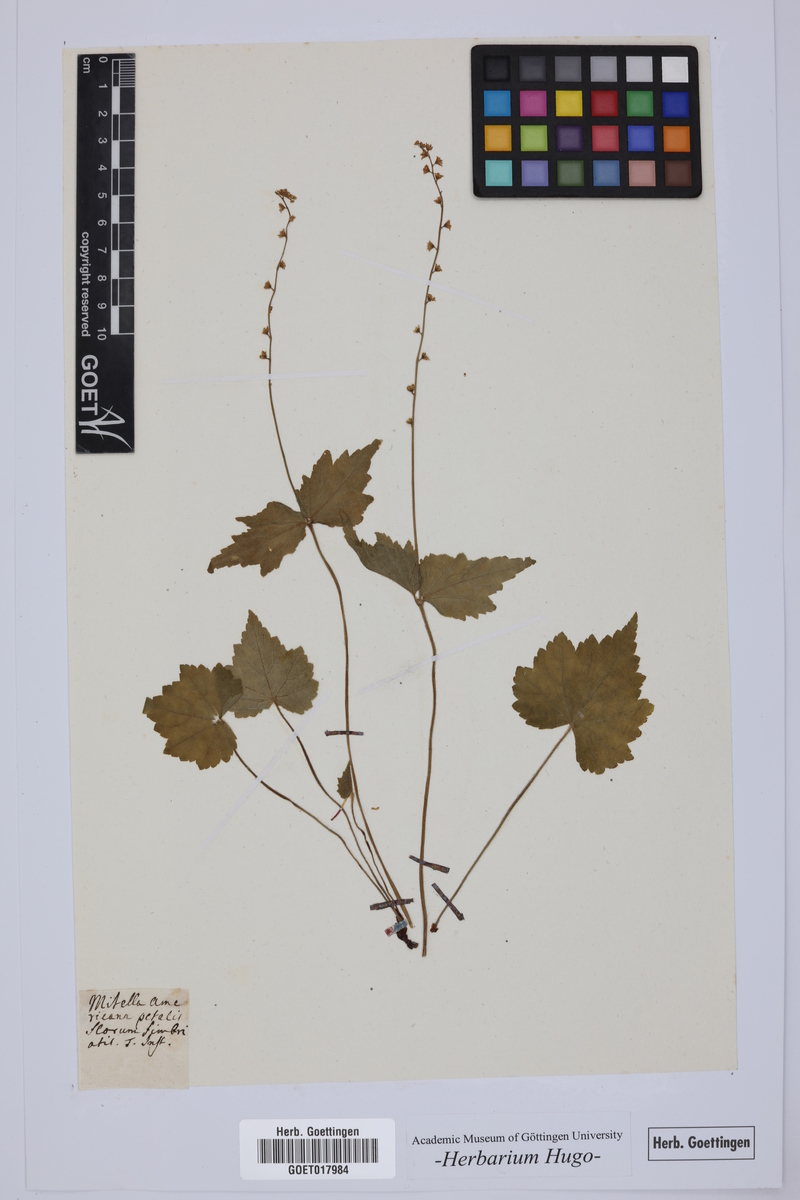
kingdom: Plantae
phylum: Tracheophyta
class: Magnoliopsida
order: Saxifragales
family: Saxifragaceae
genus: Mitella
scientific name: Mitella diphylla
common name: Coolwort
